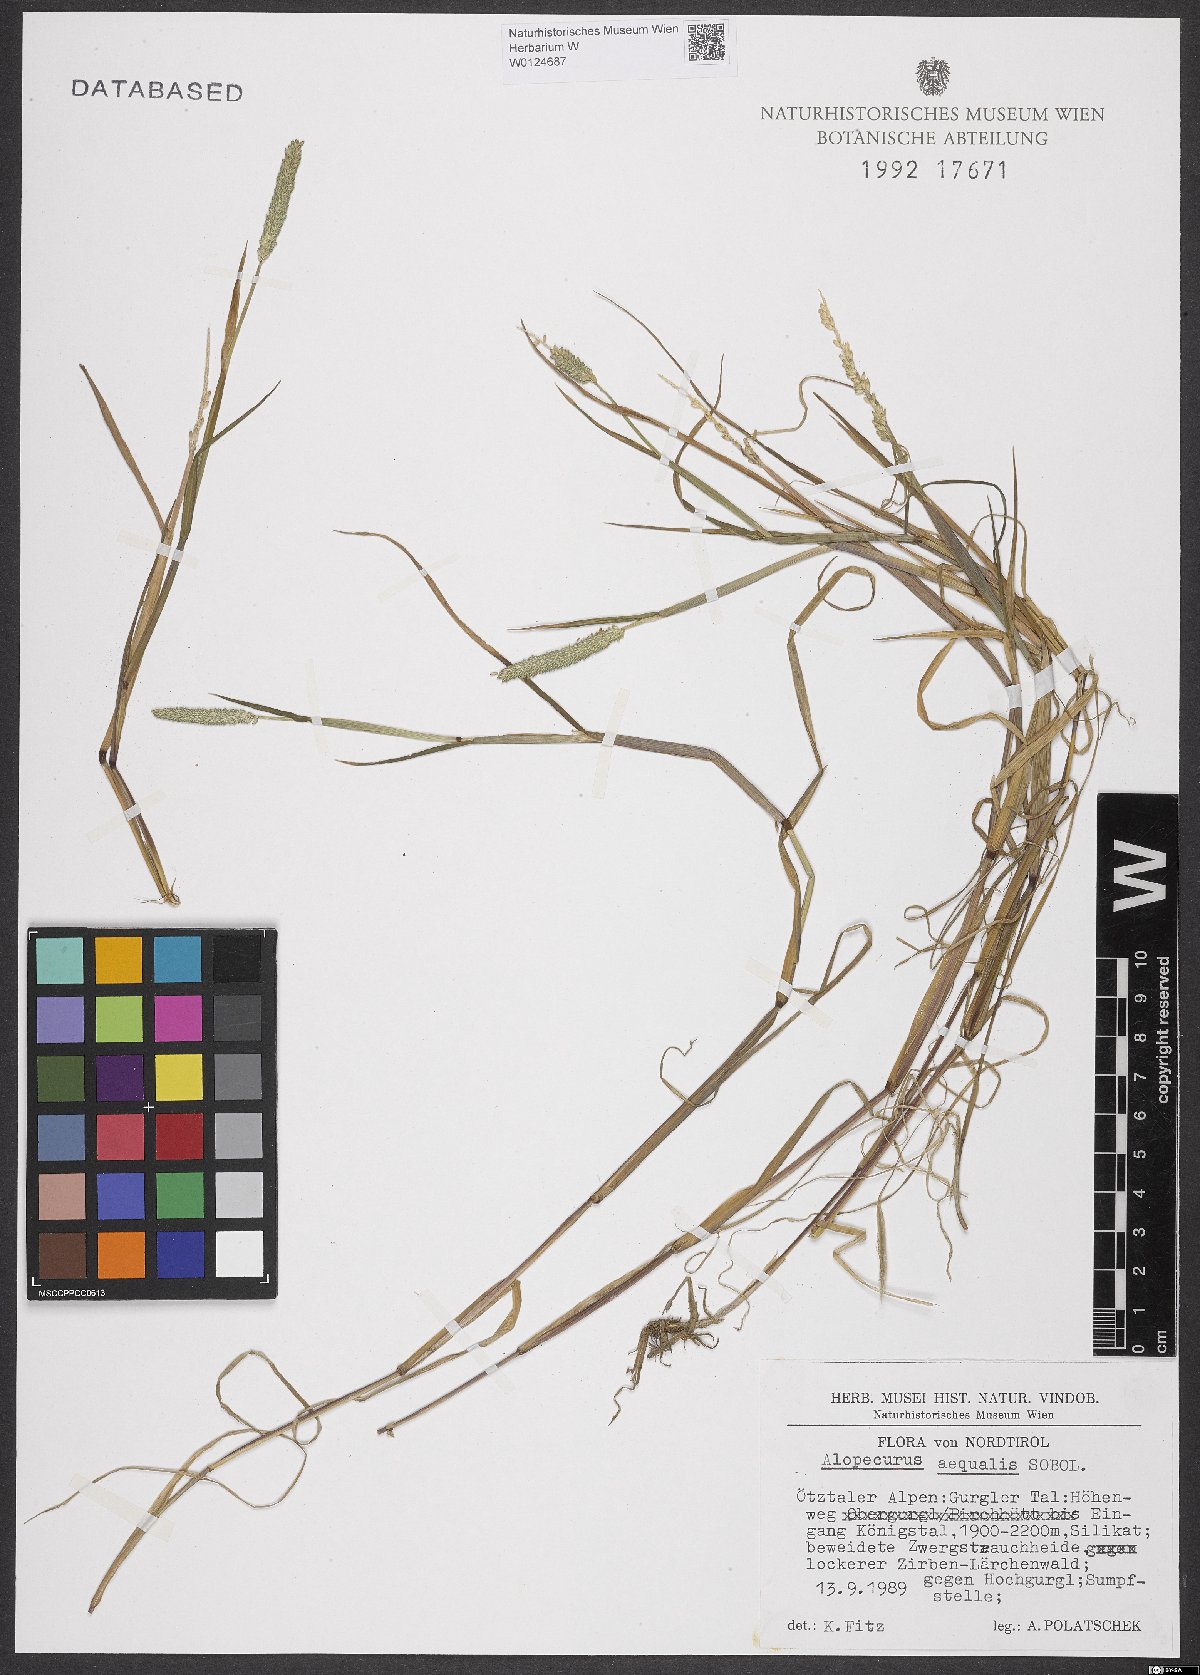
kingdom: Plantae
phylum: Tracheophyta
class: Liliopsida
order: Poales
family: Poaceae
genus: Alopecurus
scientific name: Alopecurus aequalis
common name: Orange foxtail
